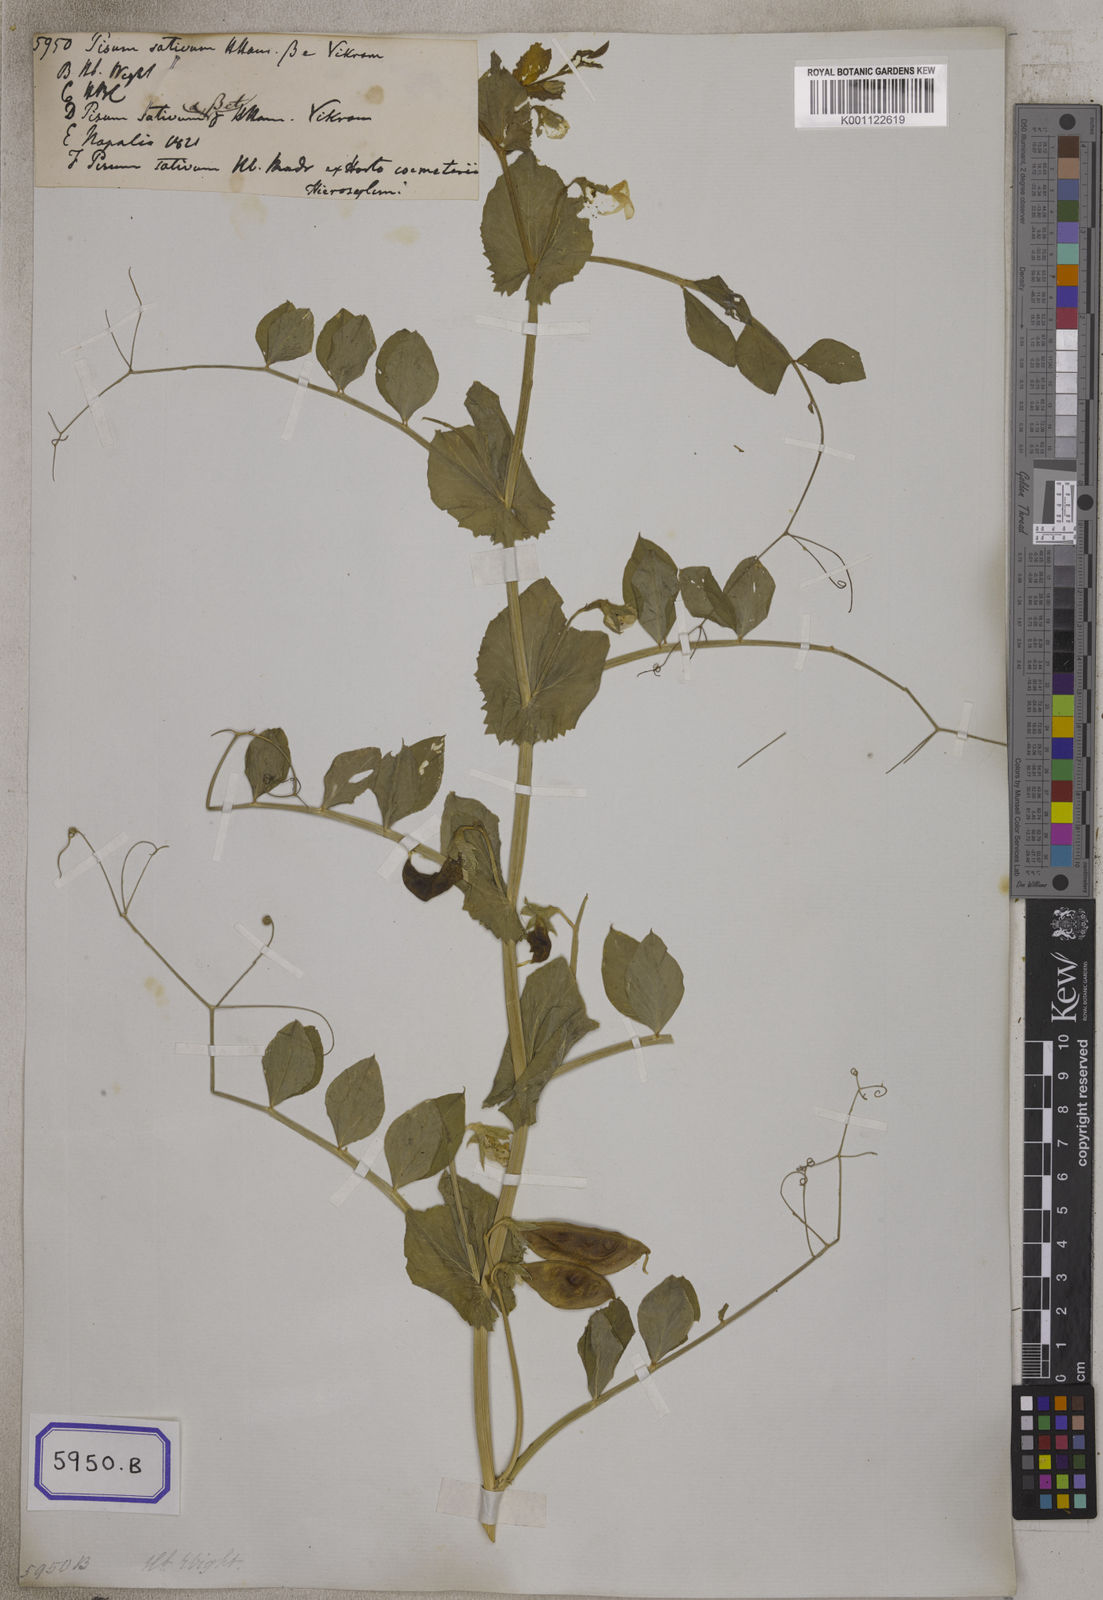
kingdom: Plantae
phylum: Tracheophyta
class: Magnoliopsida
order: Fabales
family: Fabaceae
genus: Lathyrus
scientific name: Lathyrus oleraceus
